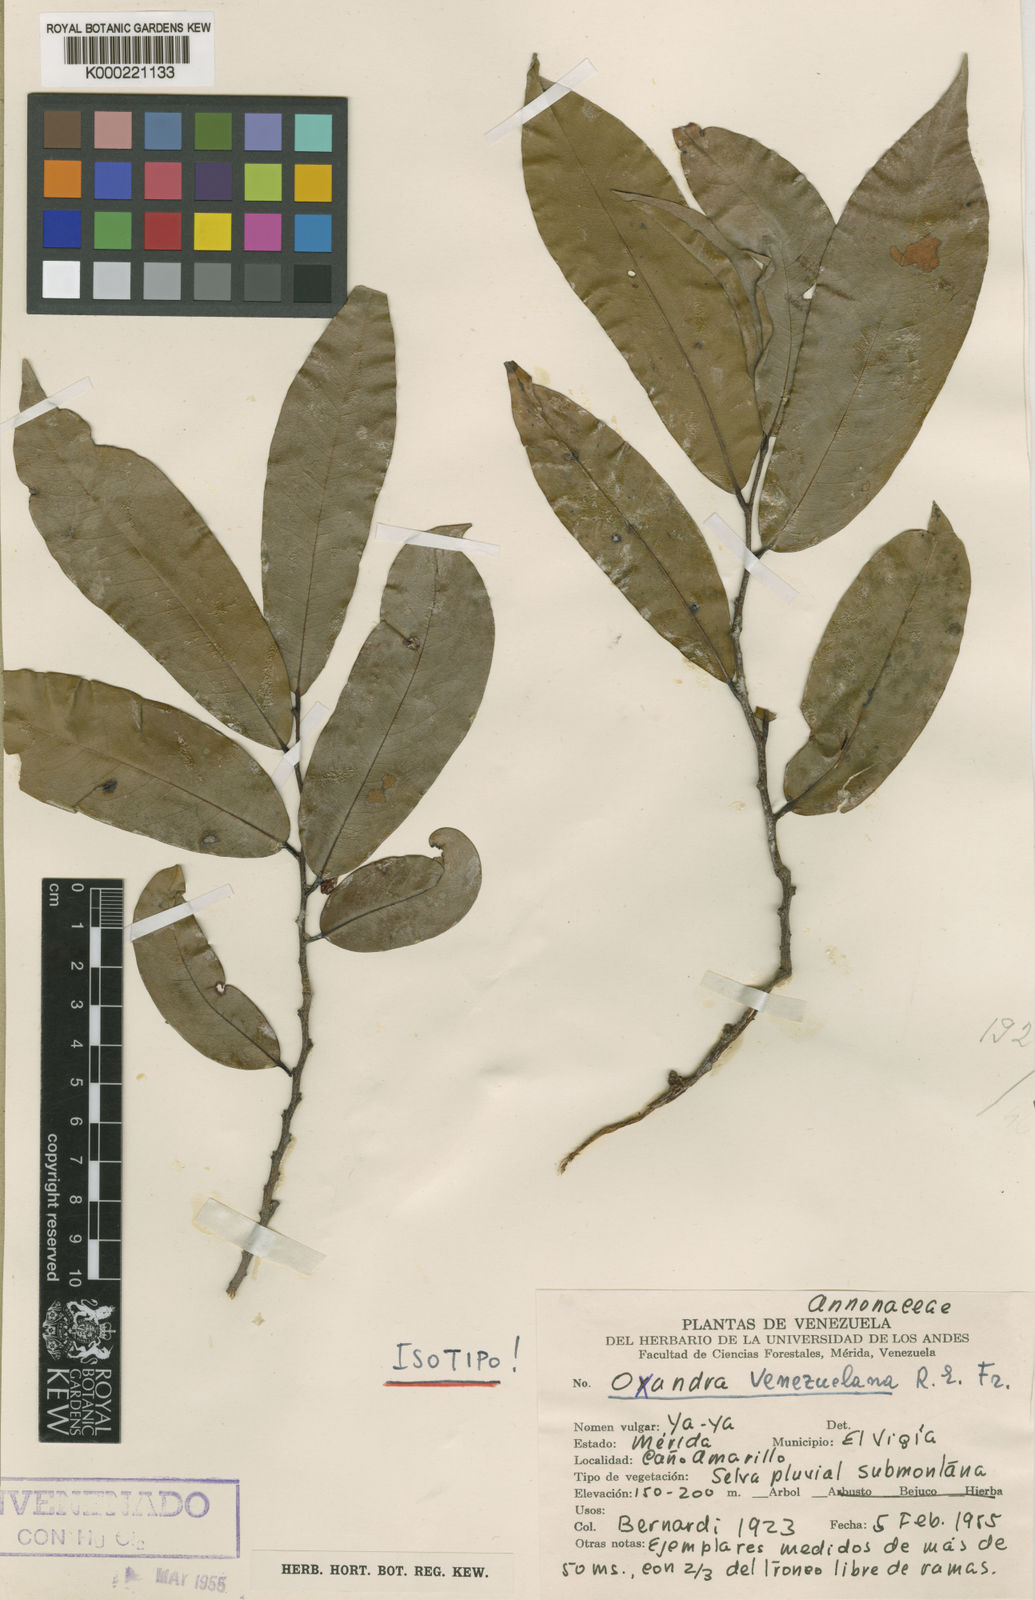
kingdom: Plantae
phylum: Tracheophyta
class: Magnoliopsida
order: Magnoliales
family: Annonaceae
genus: Oxandra
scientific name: Oxandra venezuelana
